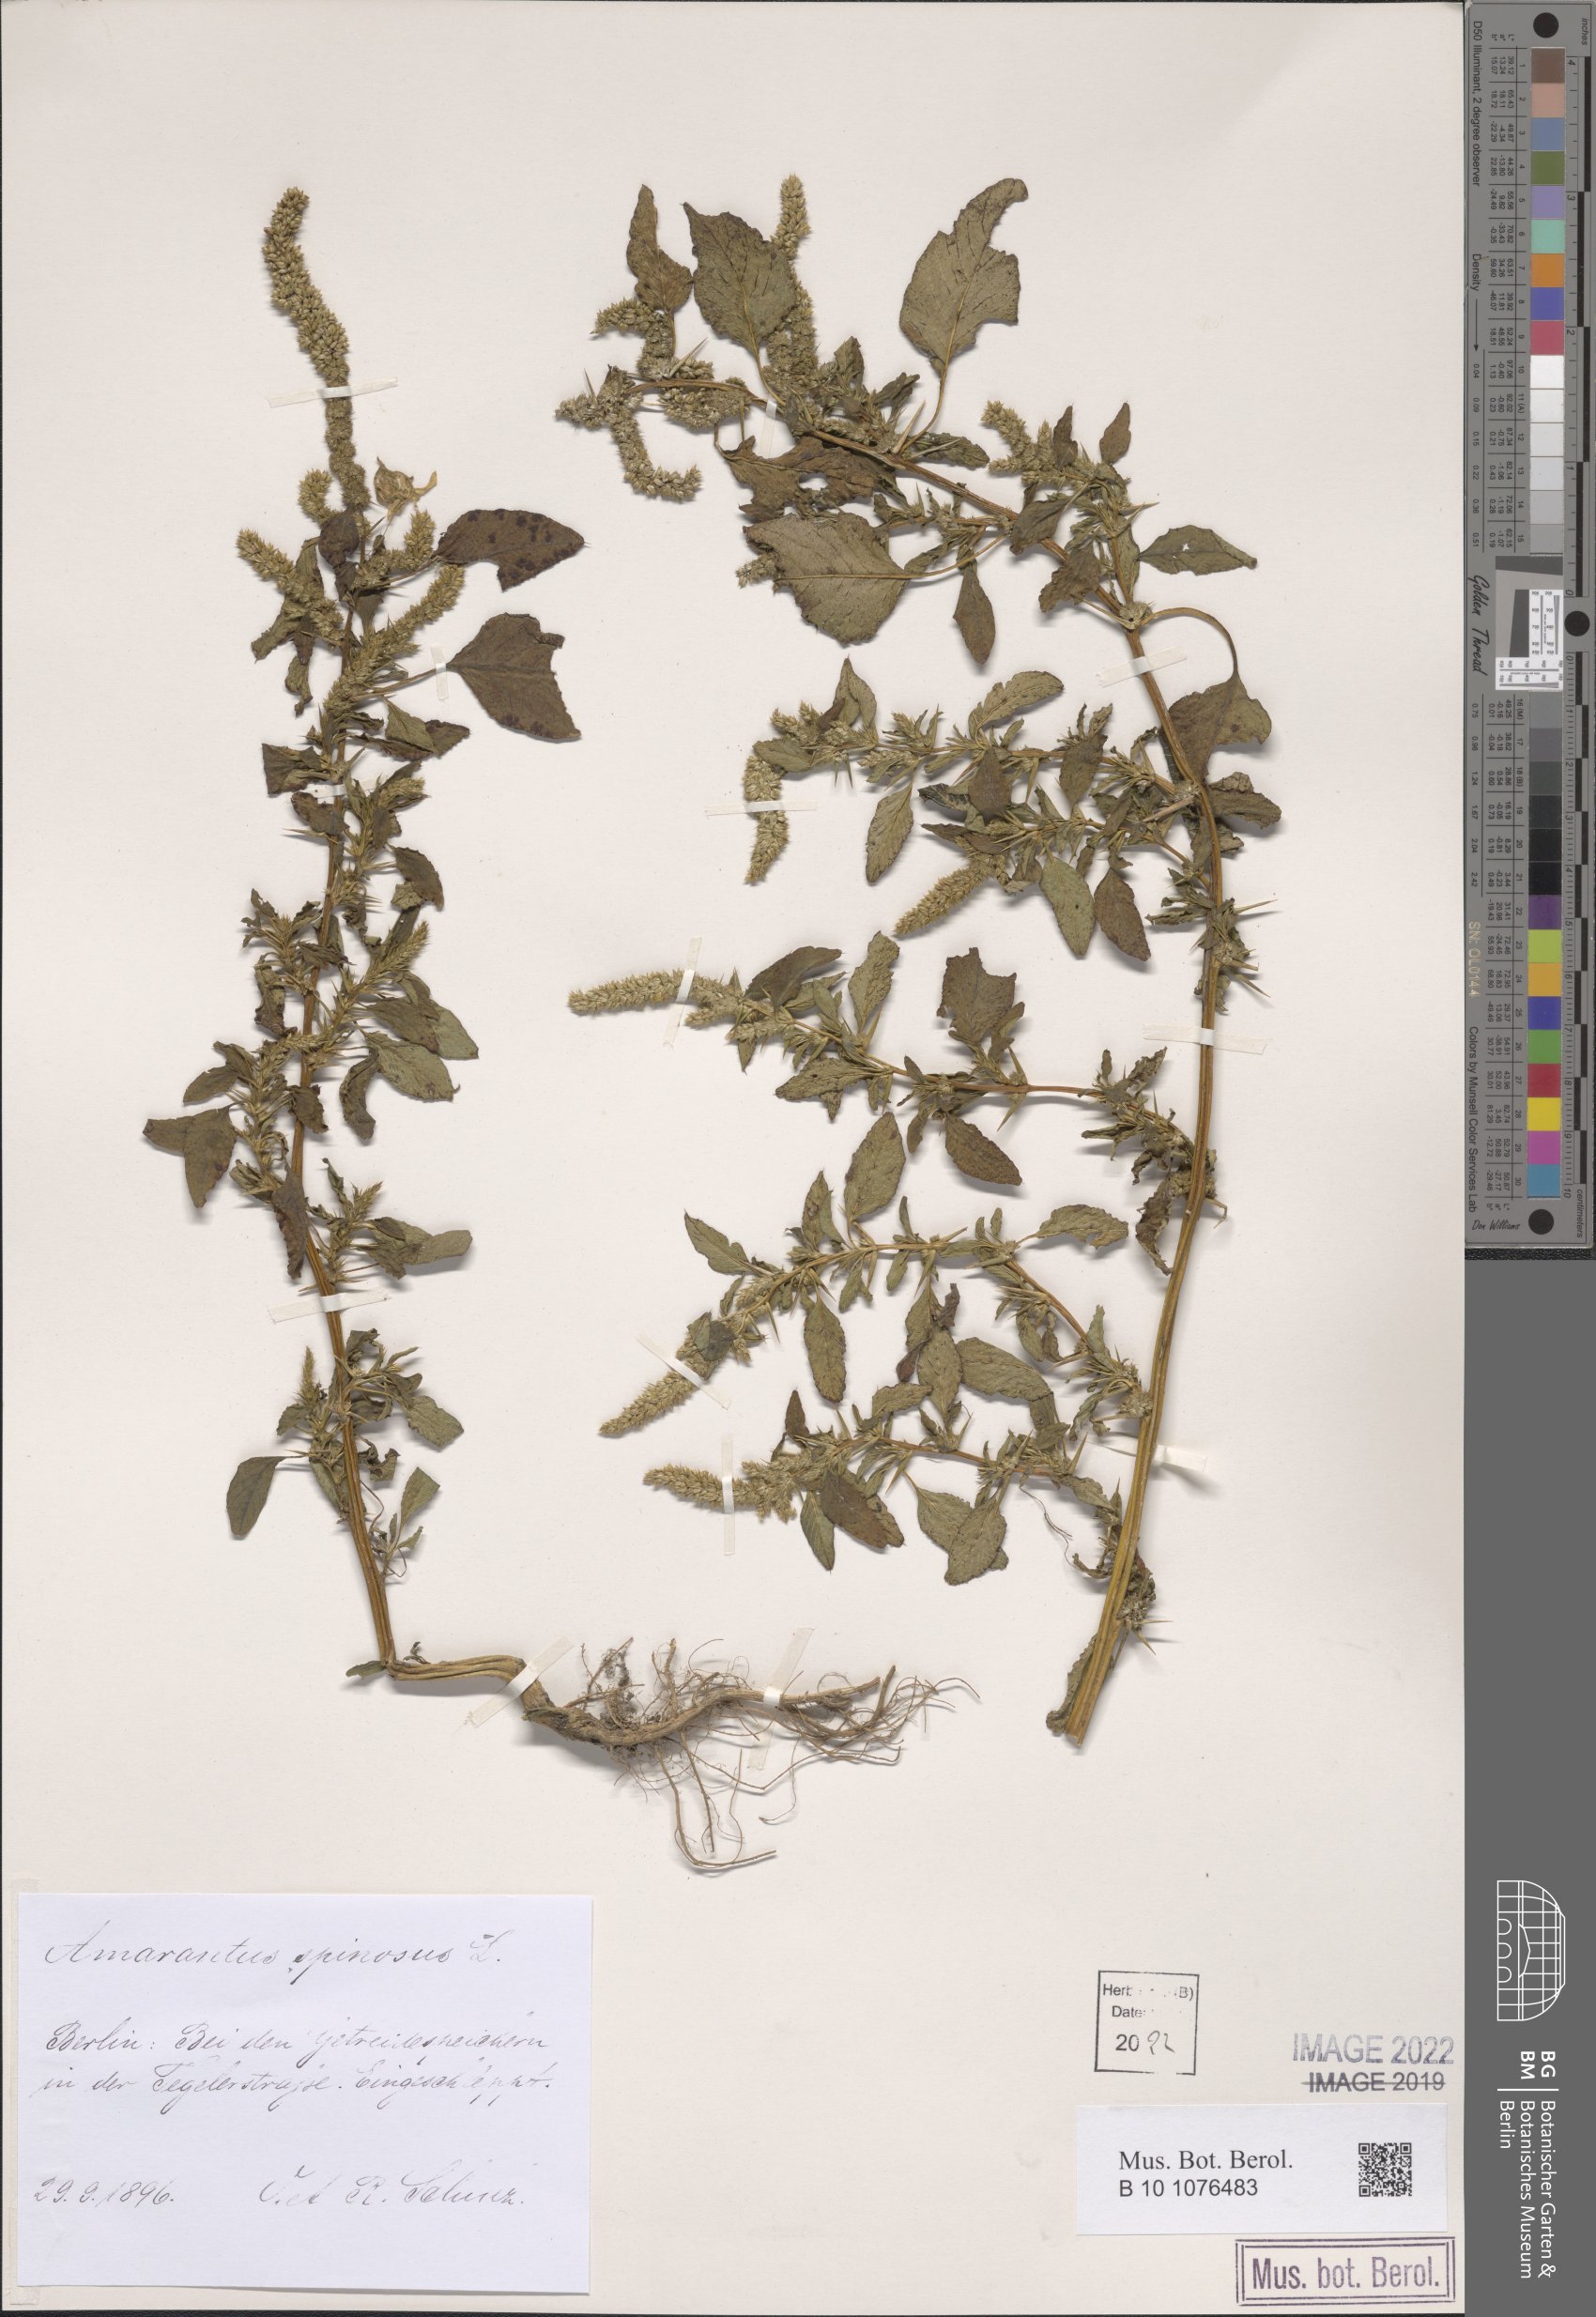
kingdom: Plantae
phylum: Tracheophyta
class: Magnoliopsida
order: Caryophyllales
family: Amaranthaceae
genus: Amaranthus
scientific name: Amaranthus spinosus
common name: Spiny amaranth
